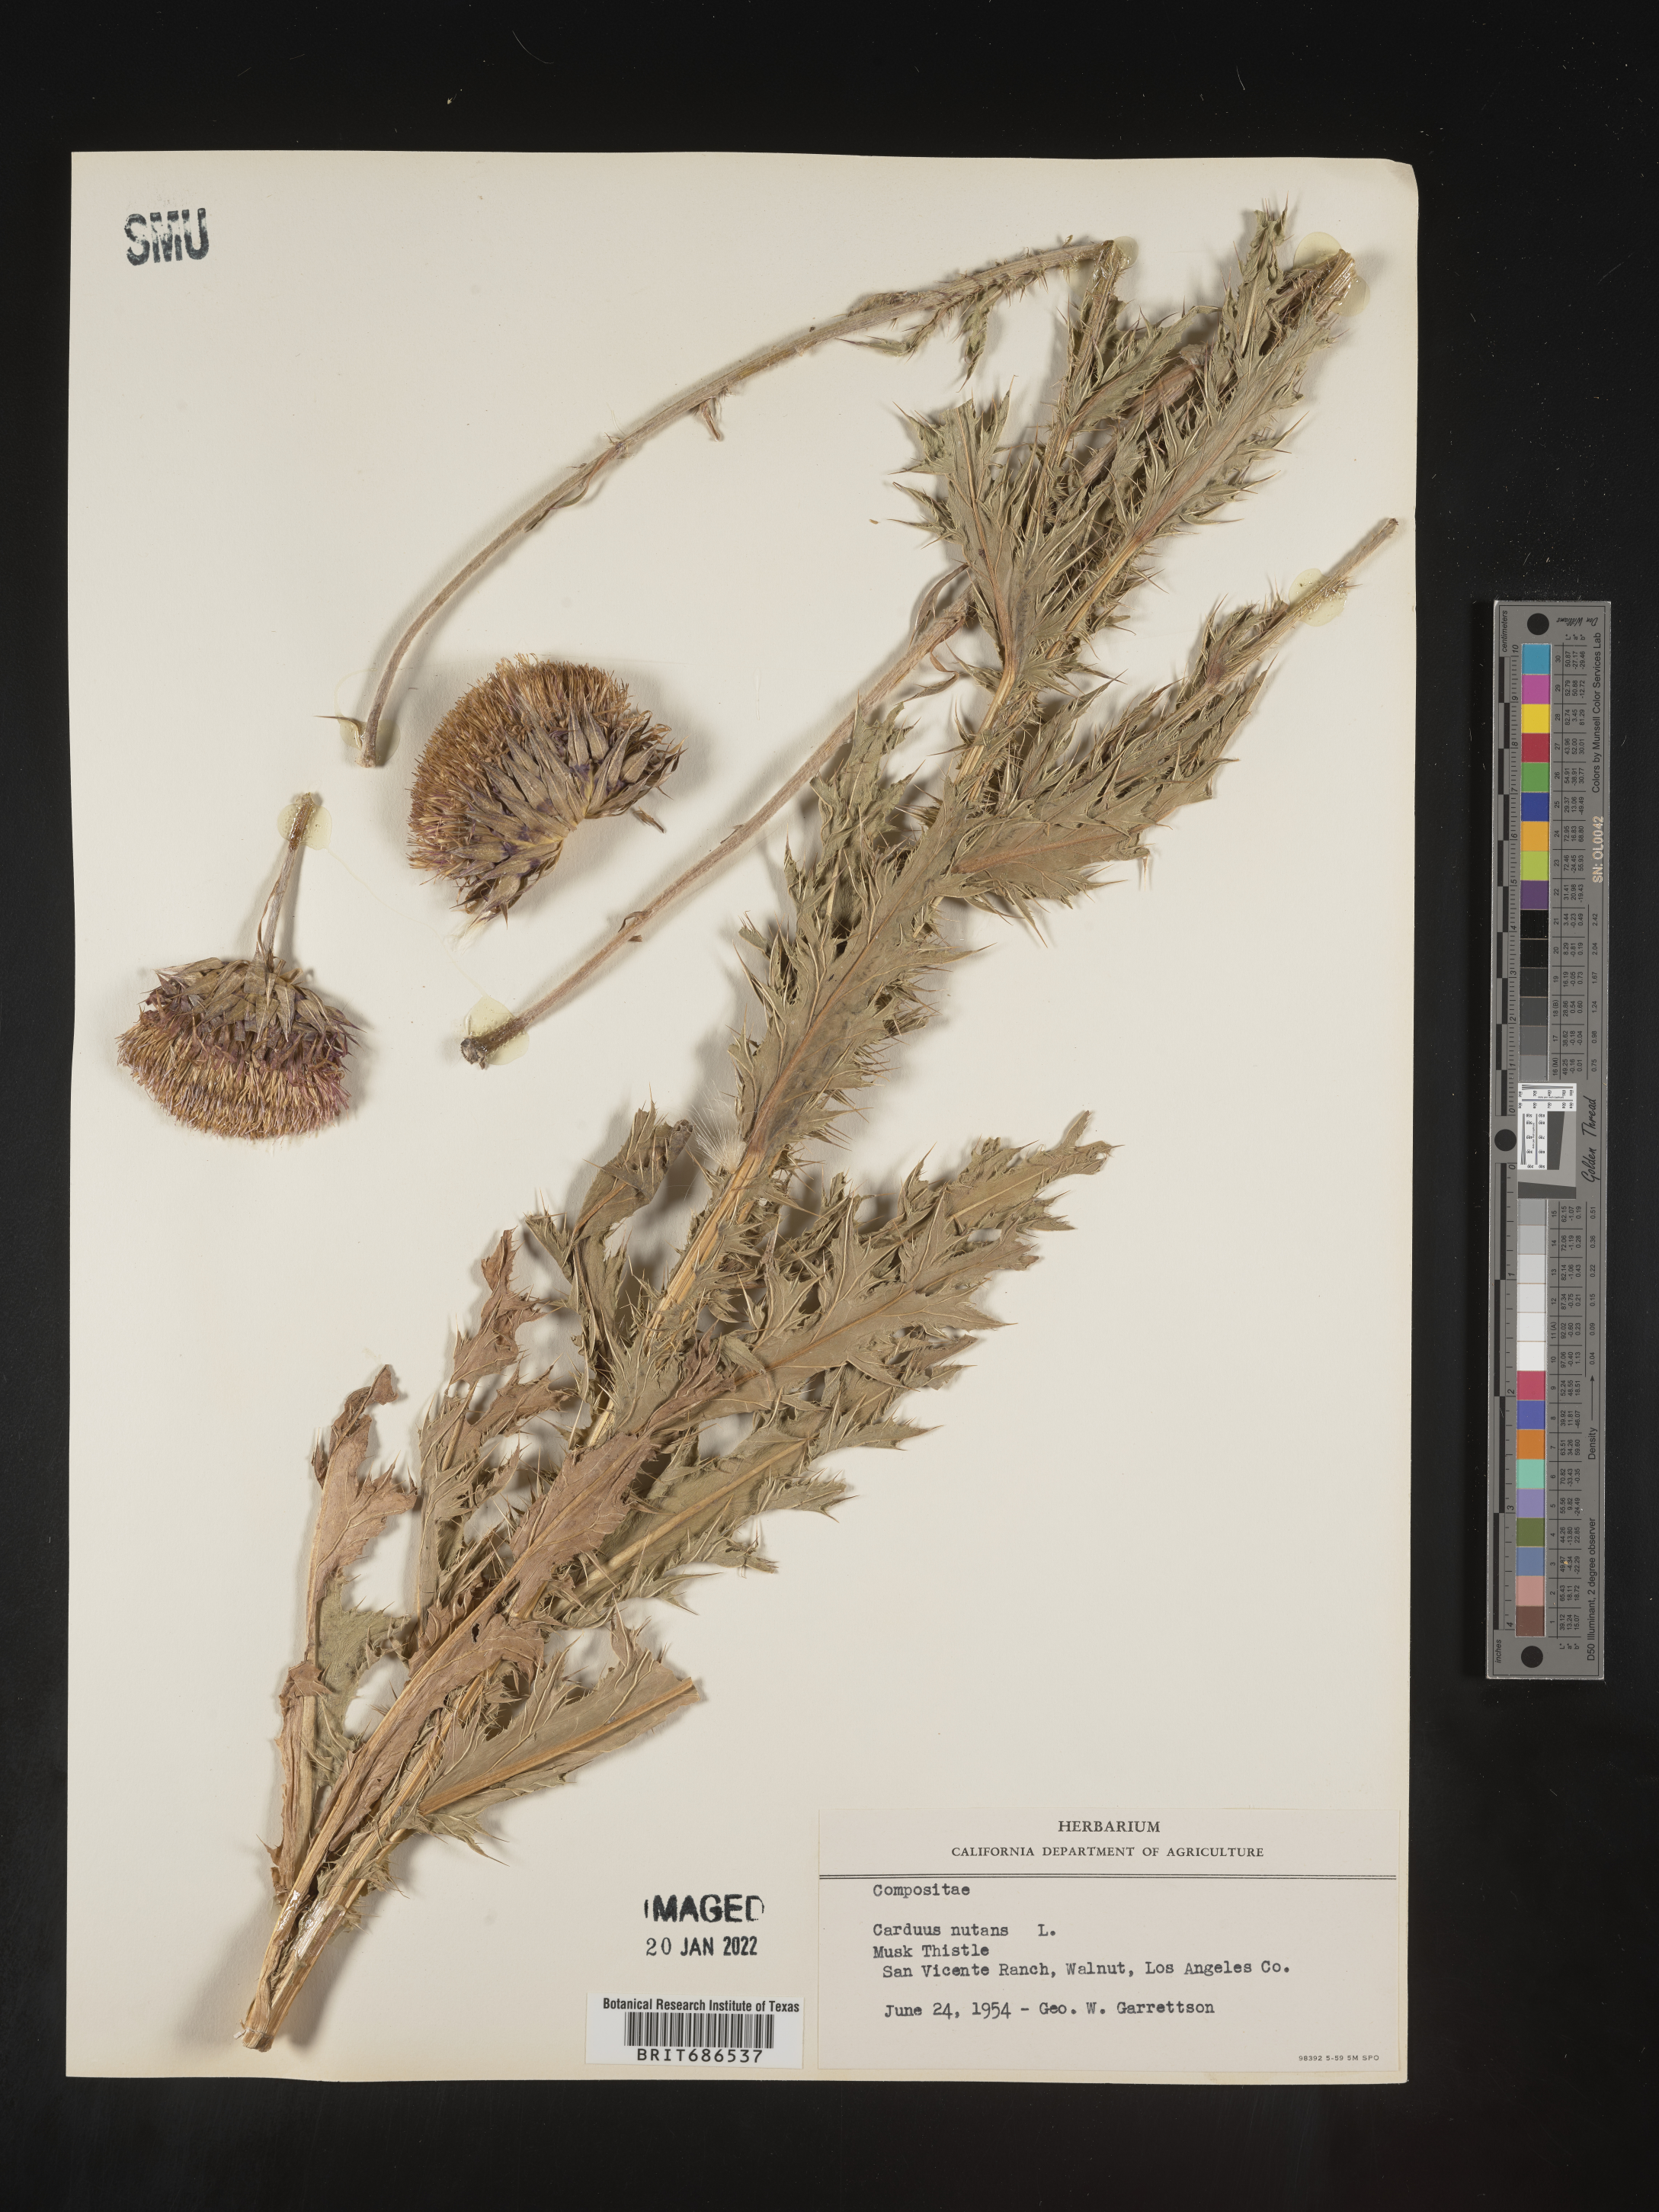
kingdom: Plantae
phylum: Tracheophyta
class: Magnoliopsida
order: Asterales
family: Asteraceae
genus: Carduus
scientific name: Carduus nutans
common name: Musk thistle
